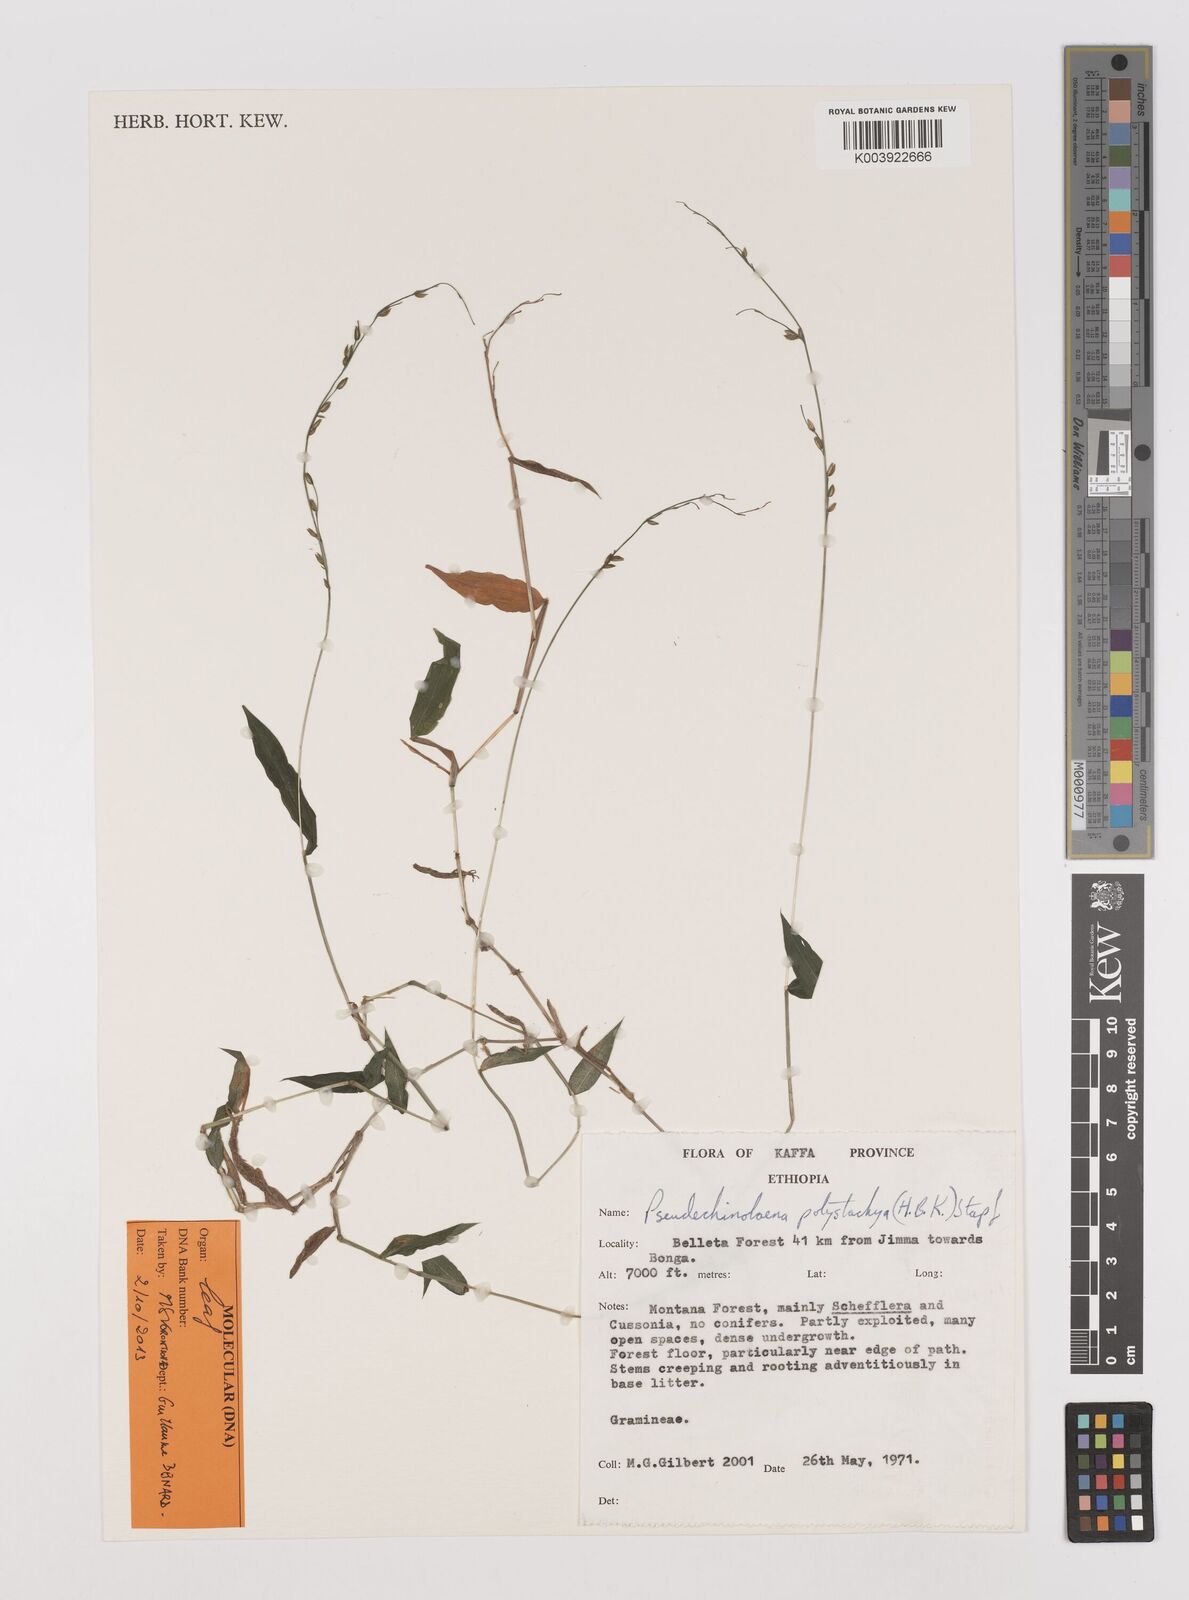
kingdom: Plantae
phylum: Tracheophyta
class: Liliopsida
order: Poales
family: Poaceae
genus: Pseudechinolaena
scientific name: Pseudechinolaena polystachya
